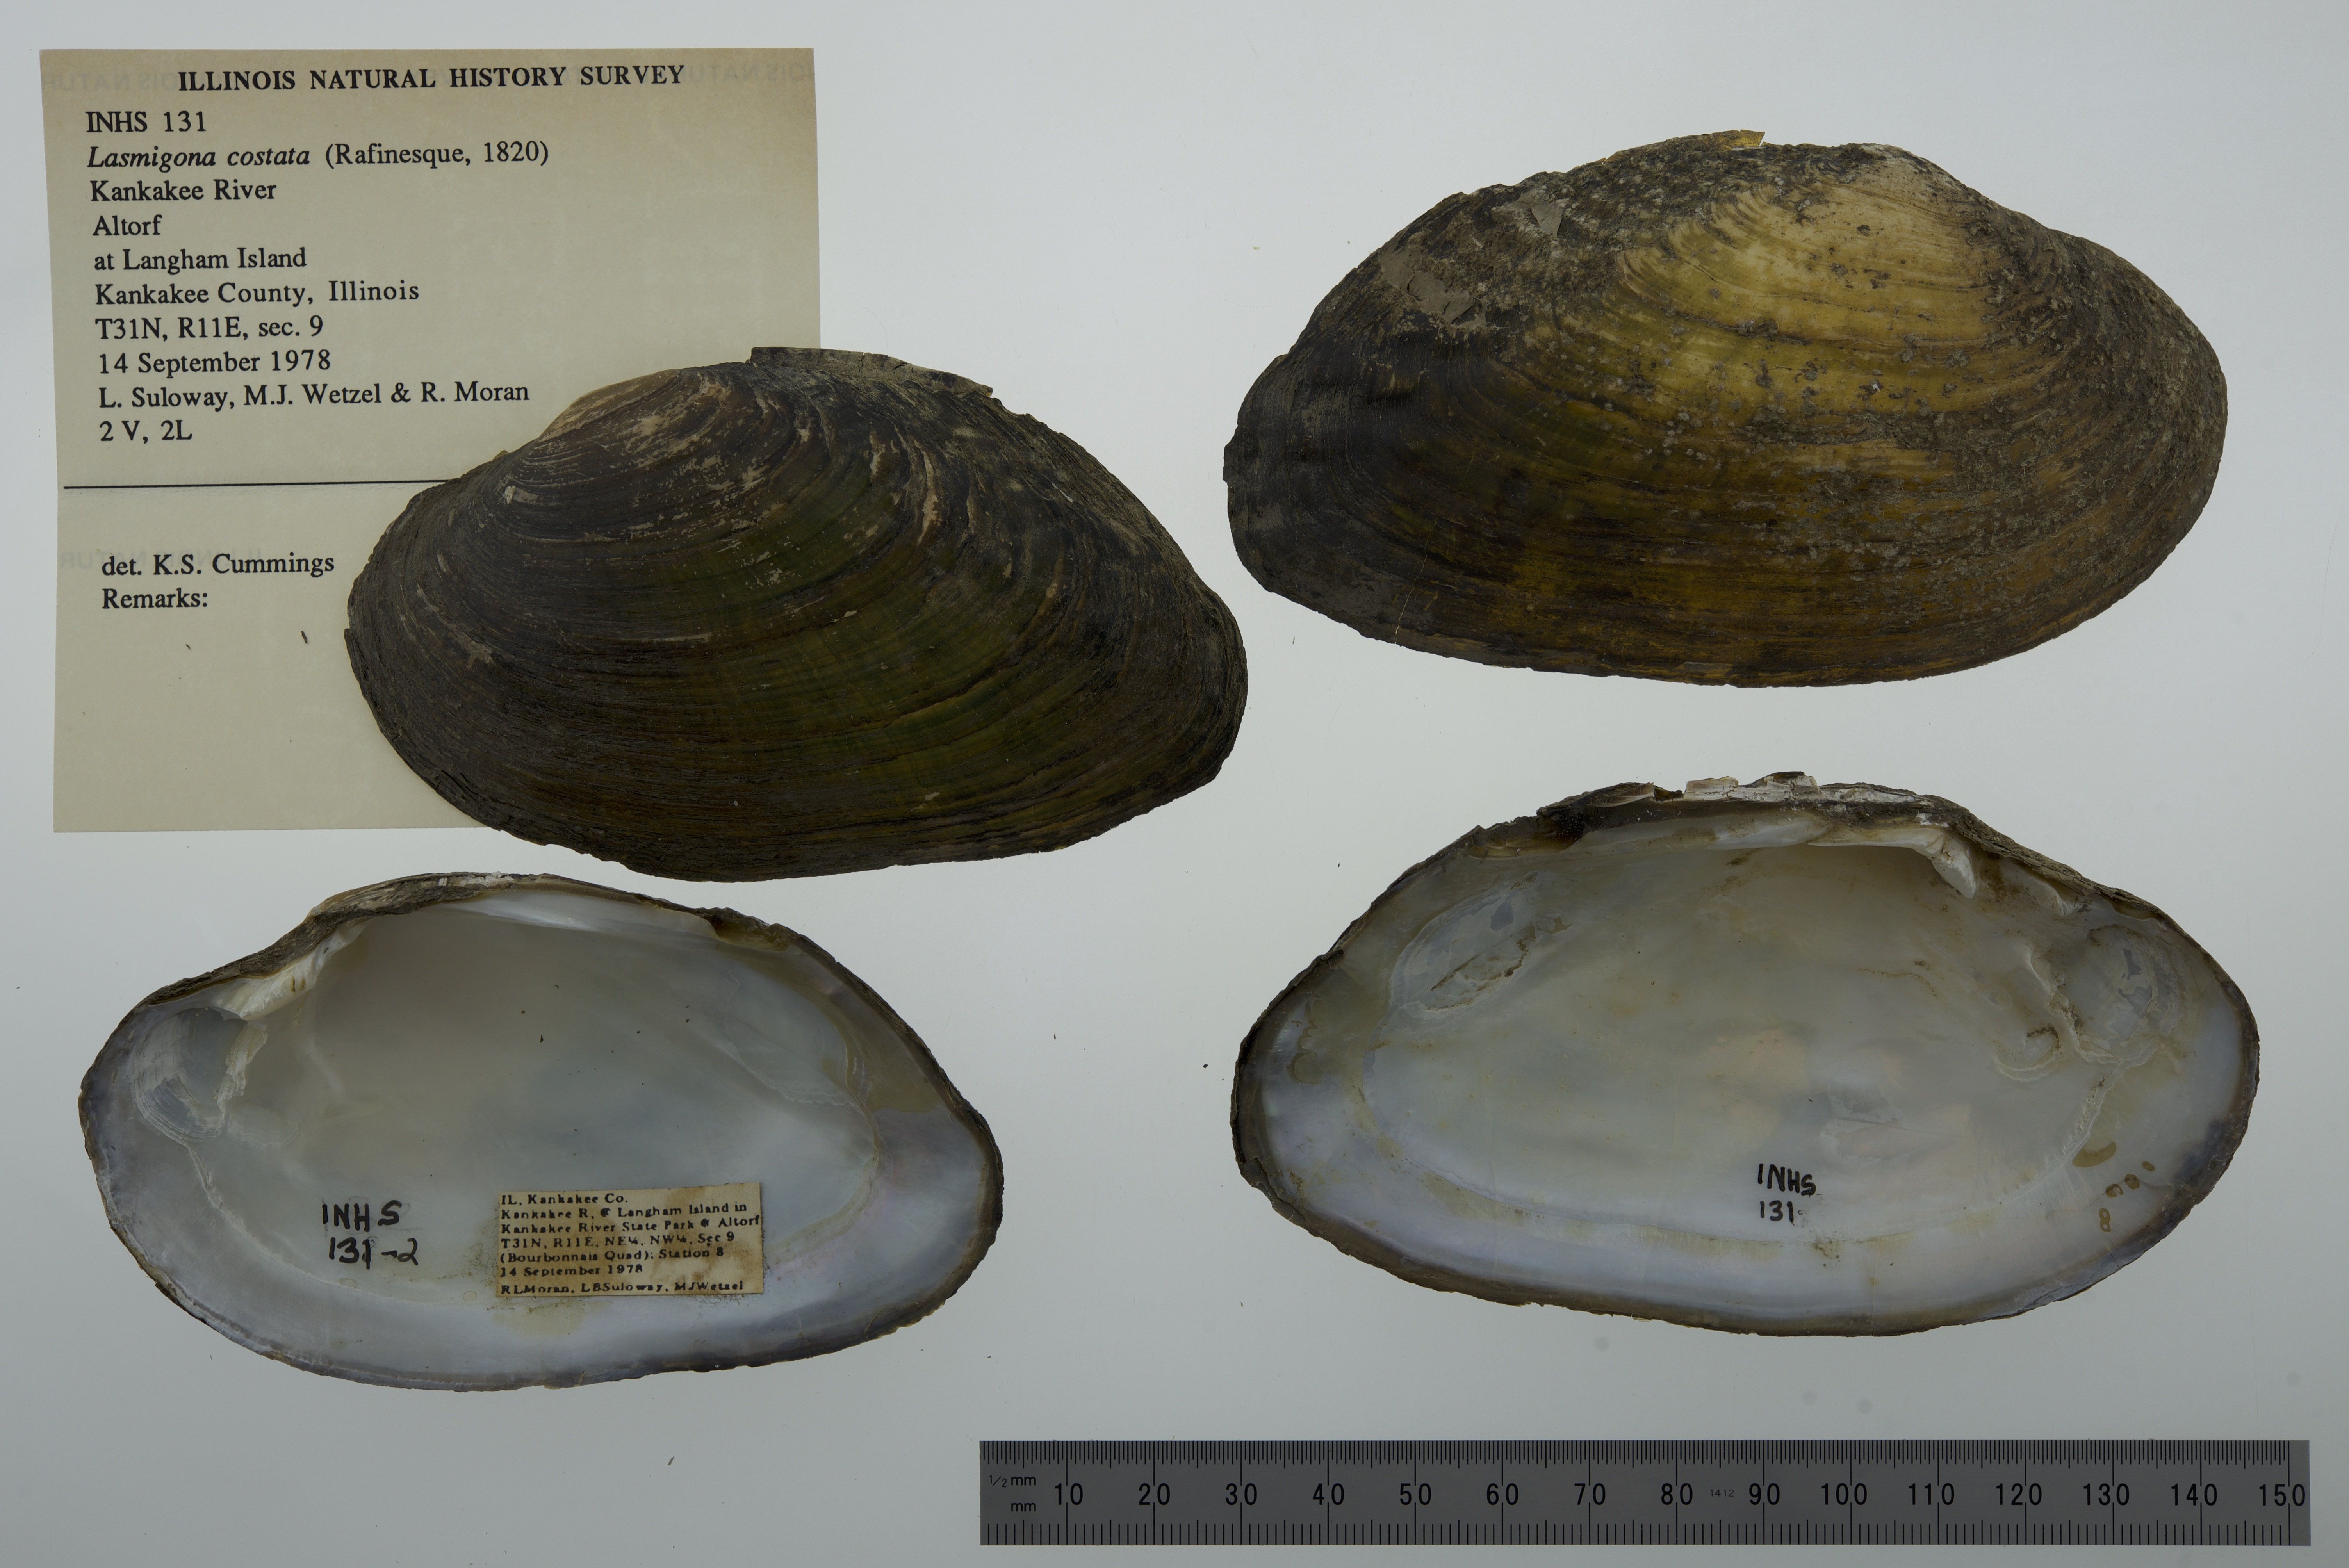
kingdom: Animalia
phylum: Mollusca
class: Bivalvia
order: Unionida
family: Unionidae
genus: Lasmigona
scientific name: Lasmigona costata
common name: Flutedshell
